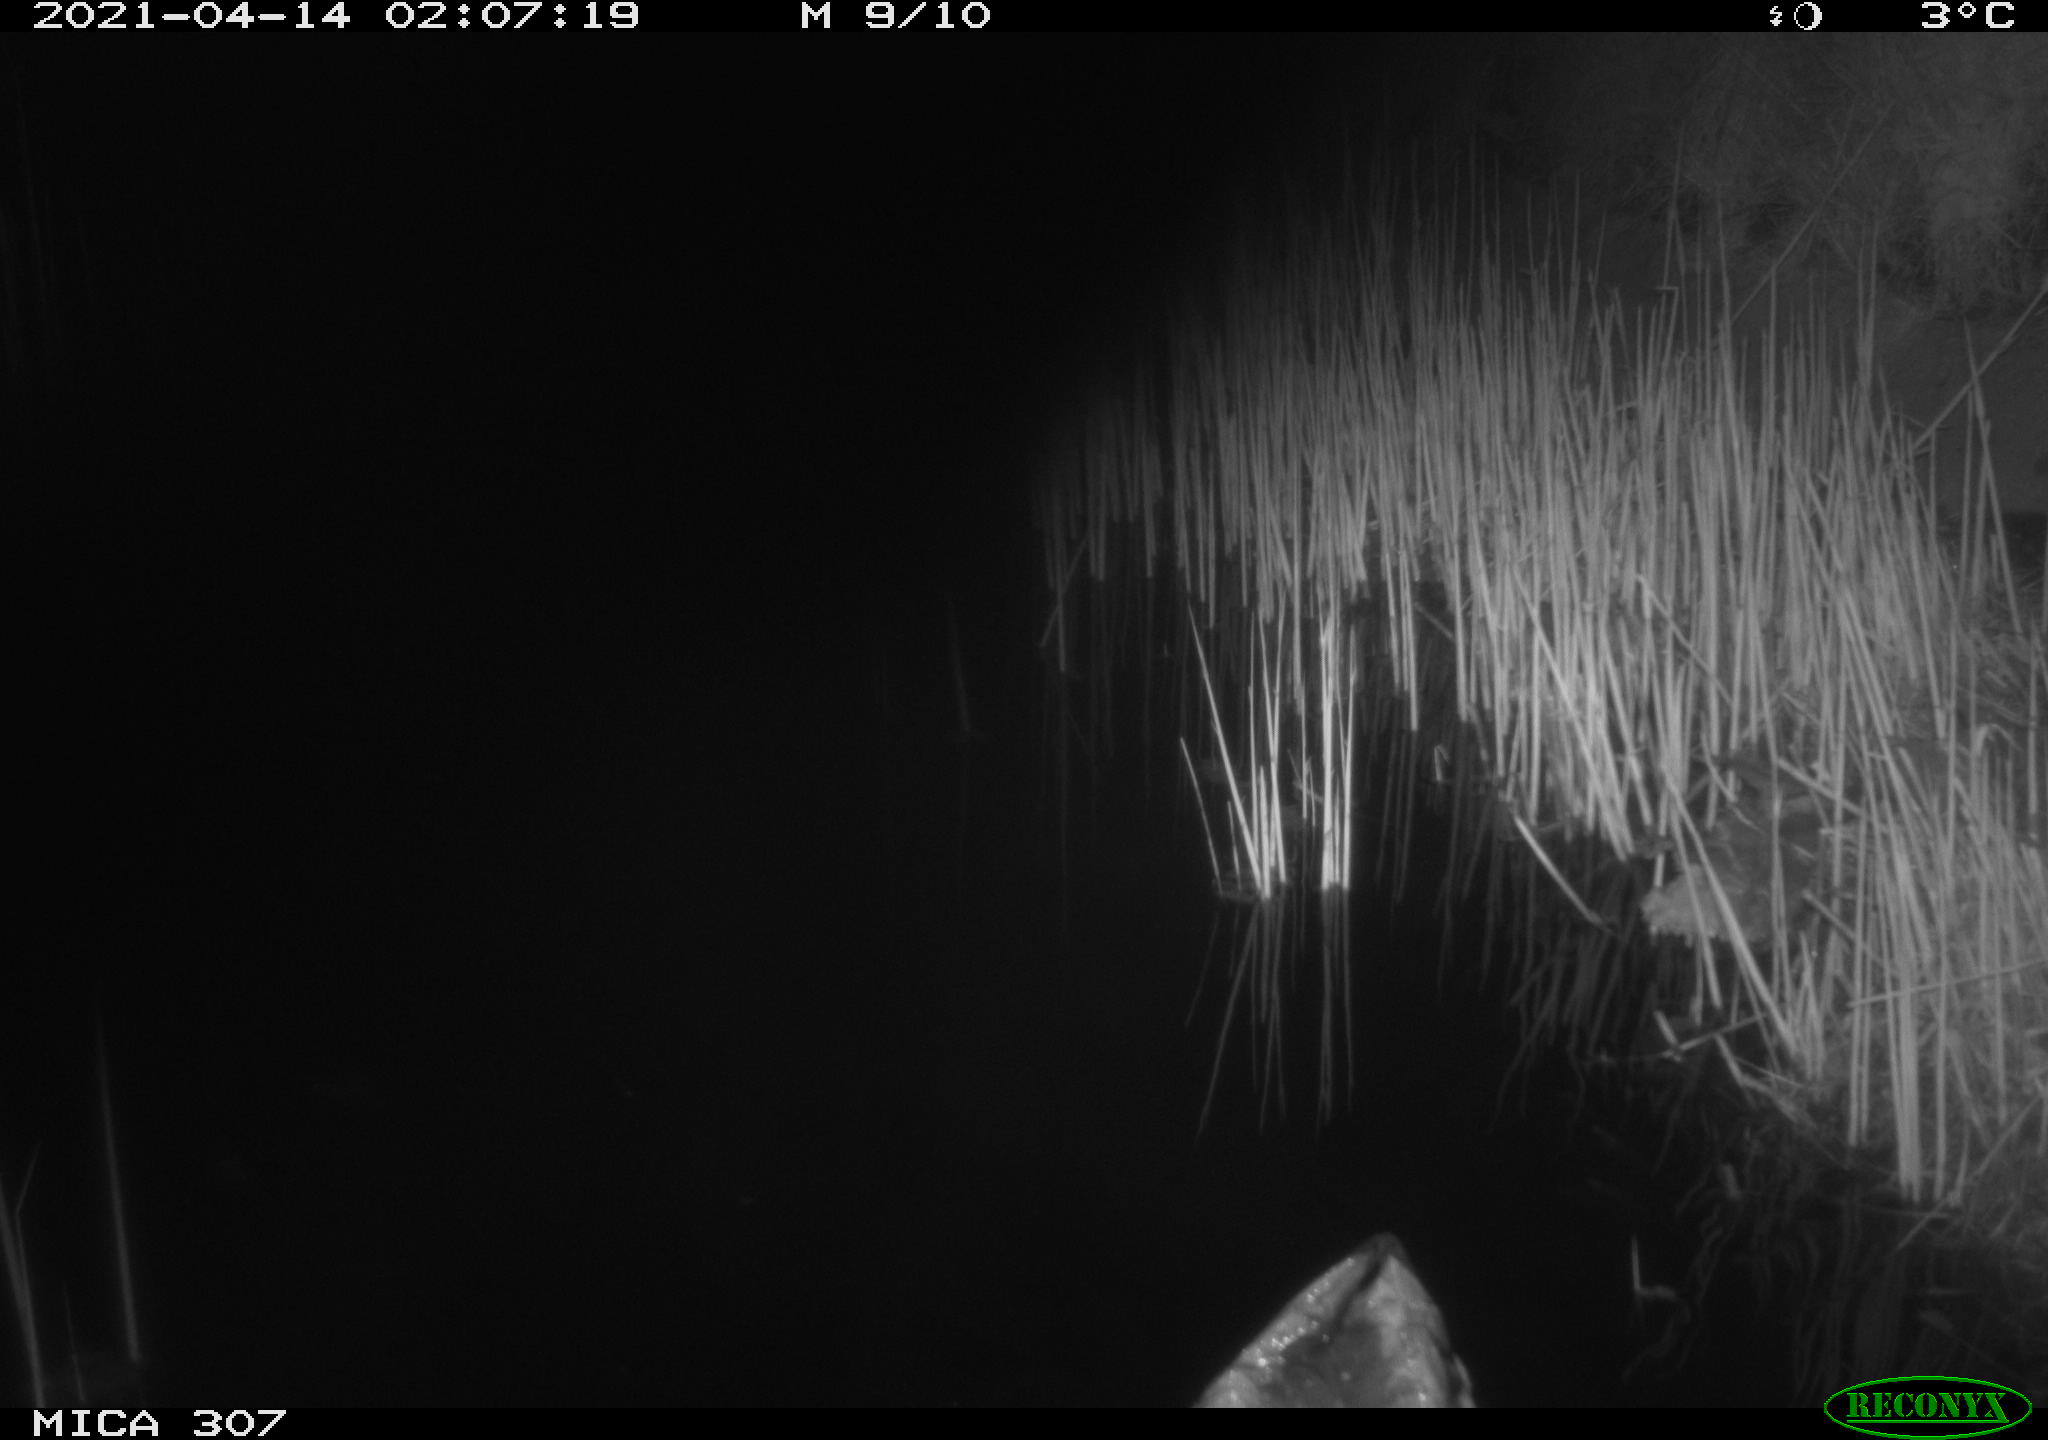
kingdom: Animalia
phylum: Chordata
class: Aves
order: Gruiformes
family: Rallidae
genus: Gallinula
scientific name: Gallinula chloropus
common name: Common moorhen
